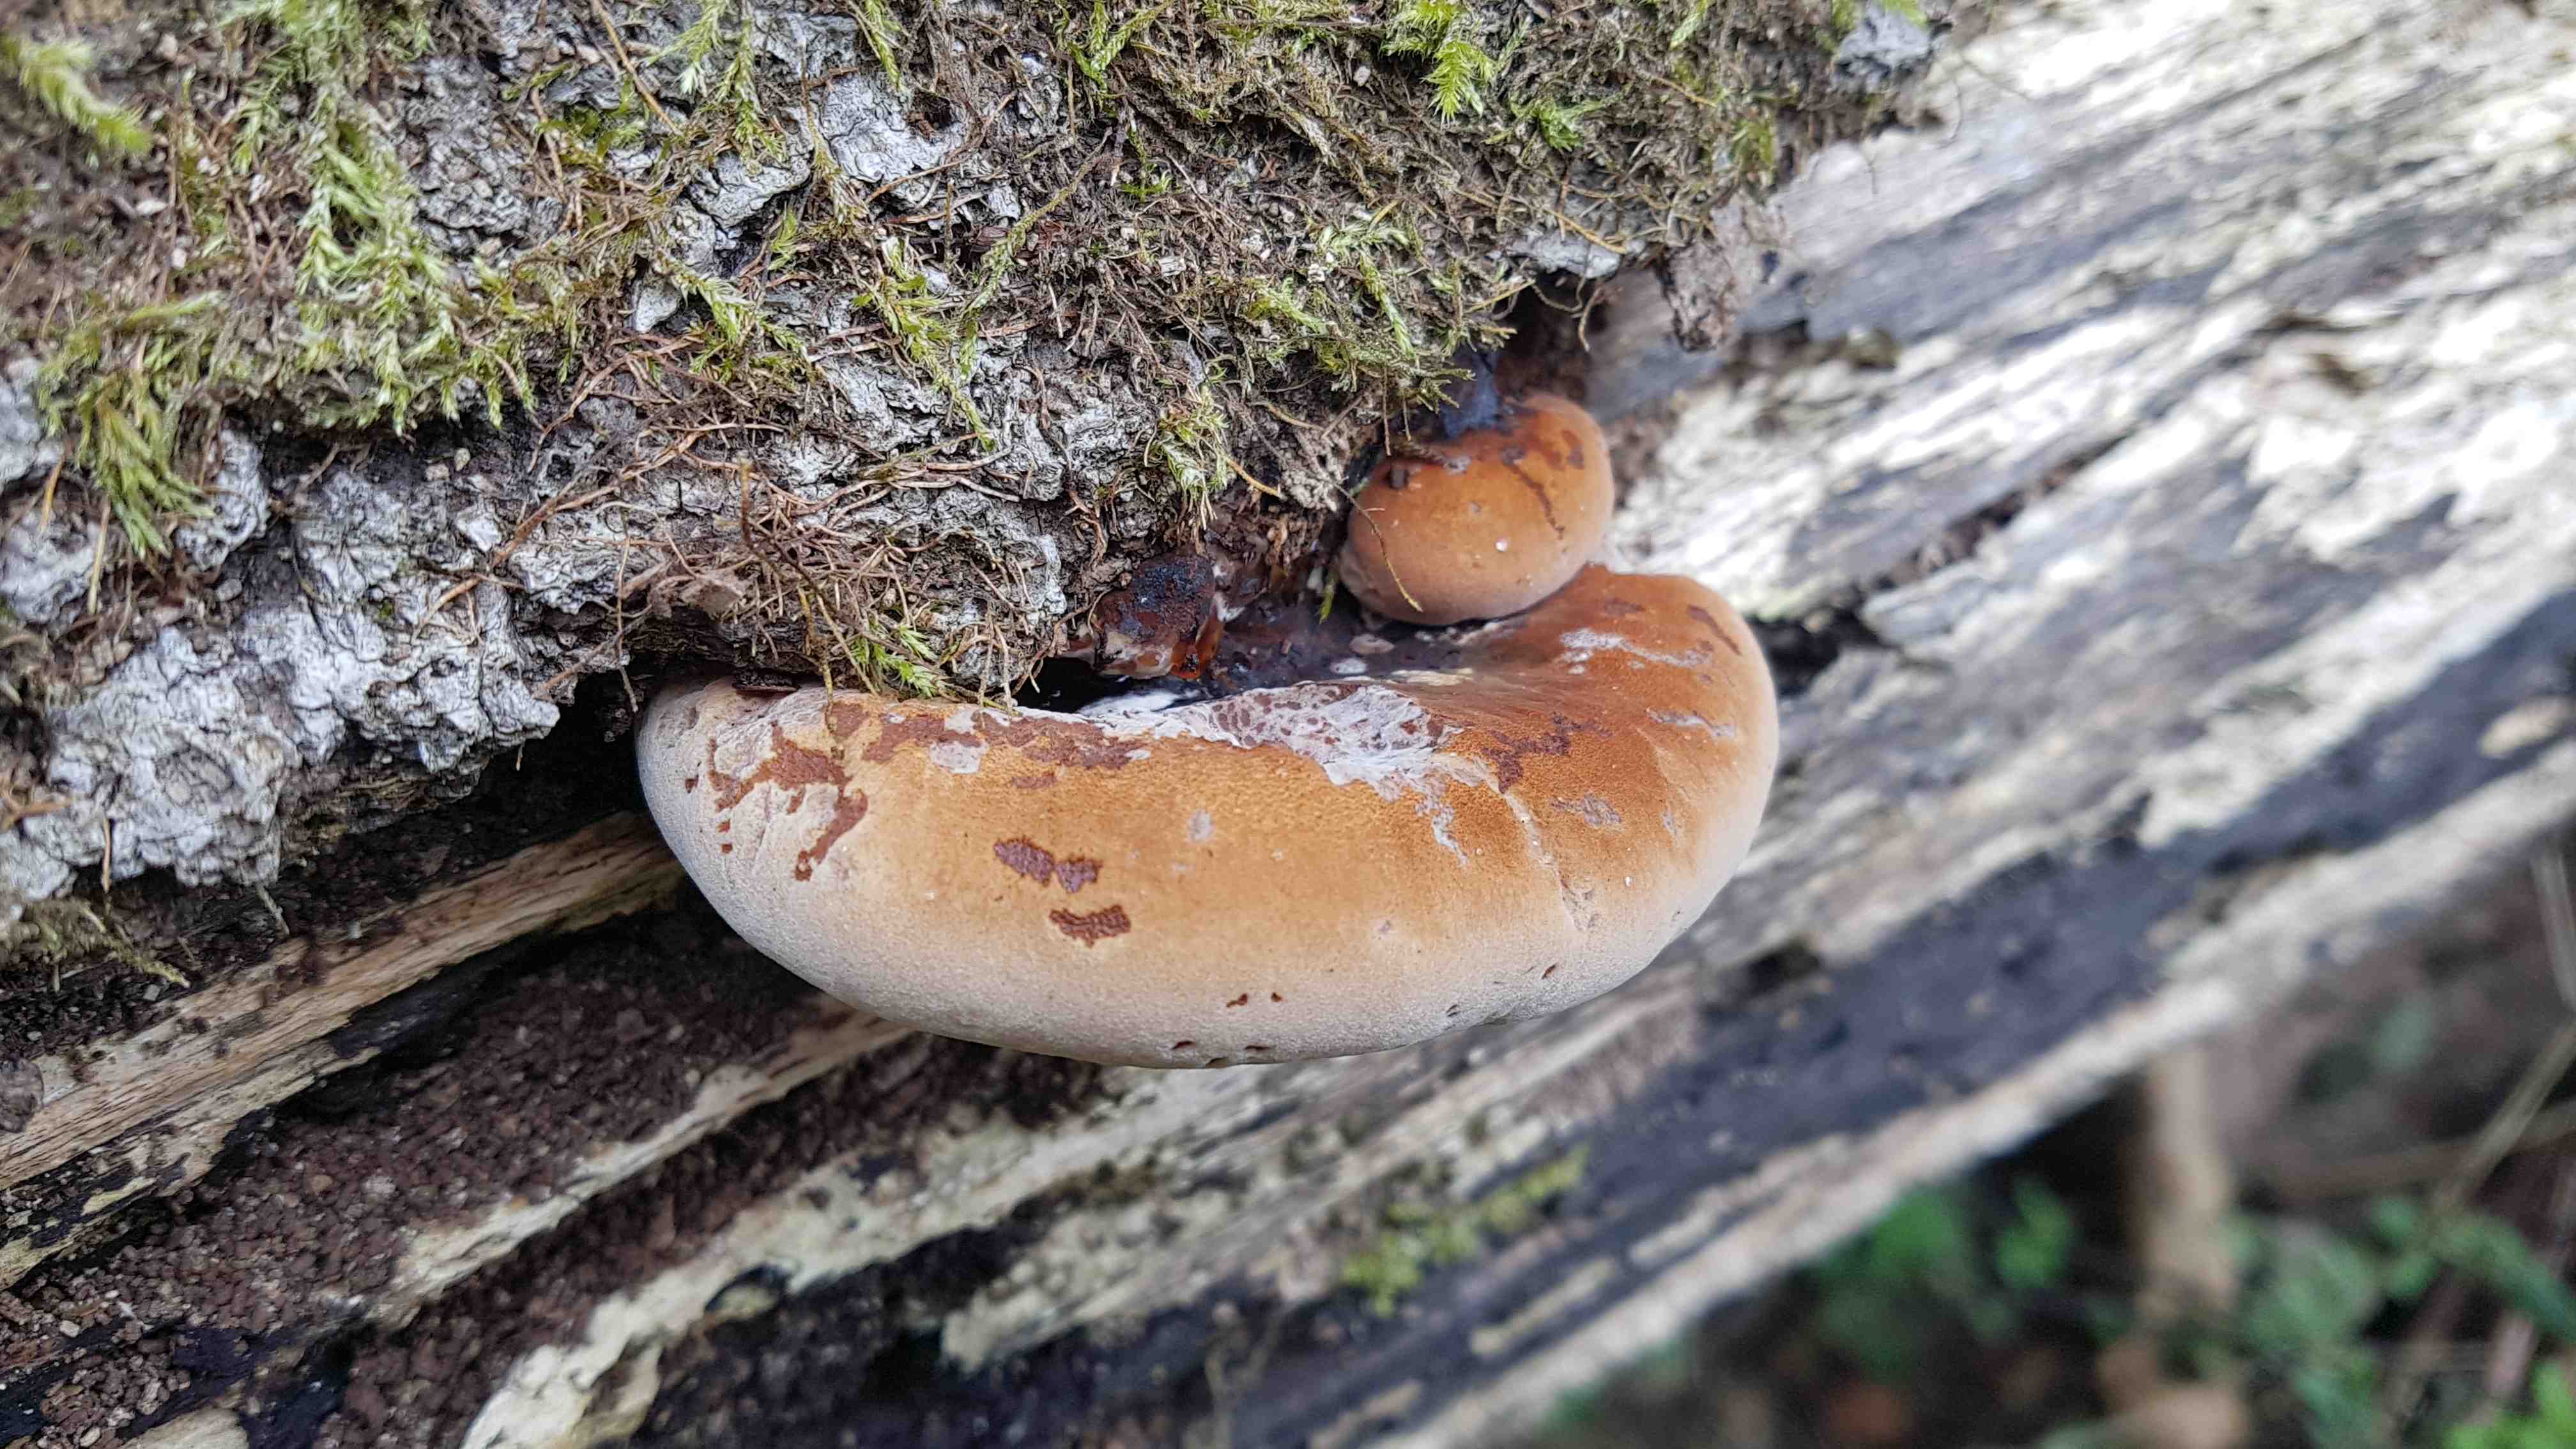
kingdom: Fungi
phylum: Basidiomycota
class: Agaricomycetes
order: Polyporales
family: Ischnodermataceae
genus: Ischnoderma
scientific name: Ischnoderma resinosum
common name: løv-tjæreporesvamp
